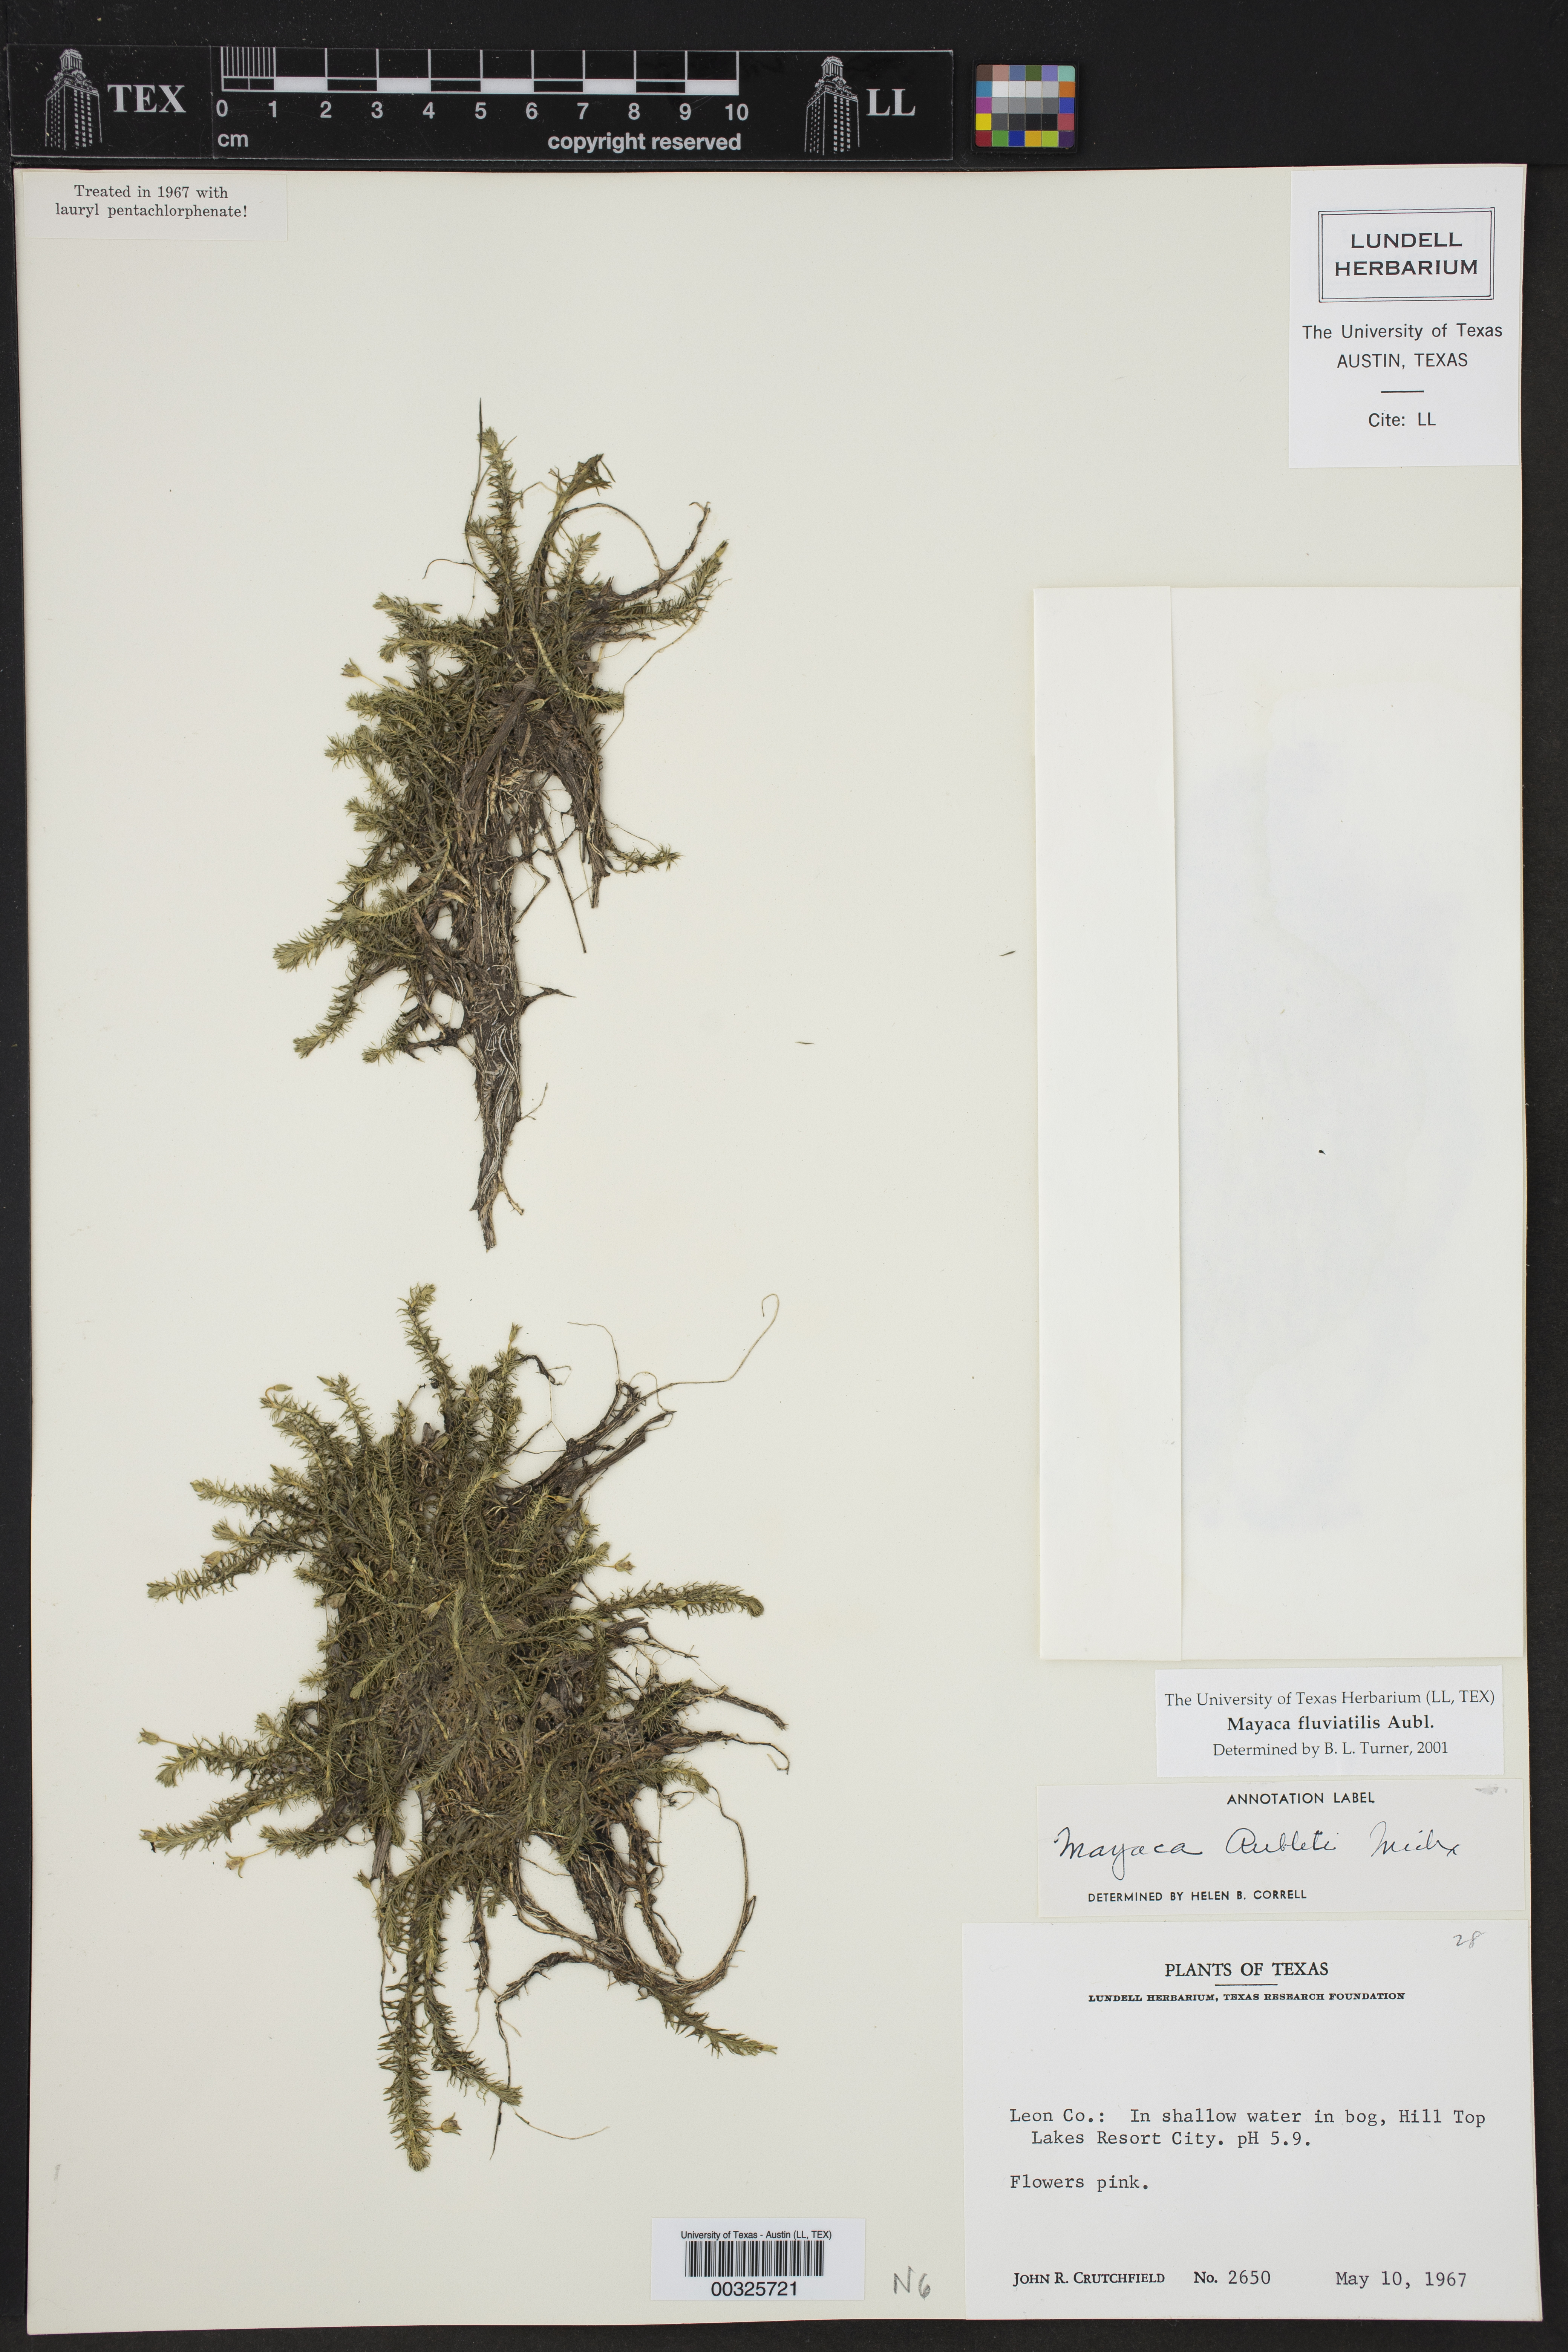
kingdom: Plantae
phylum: Tracheophyta
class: Liliopsida
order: Poales
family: Mayacaceae
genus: Mayaca
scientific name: Mayaca fluviatilis
